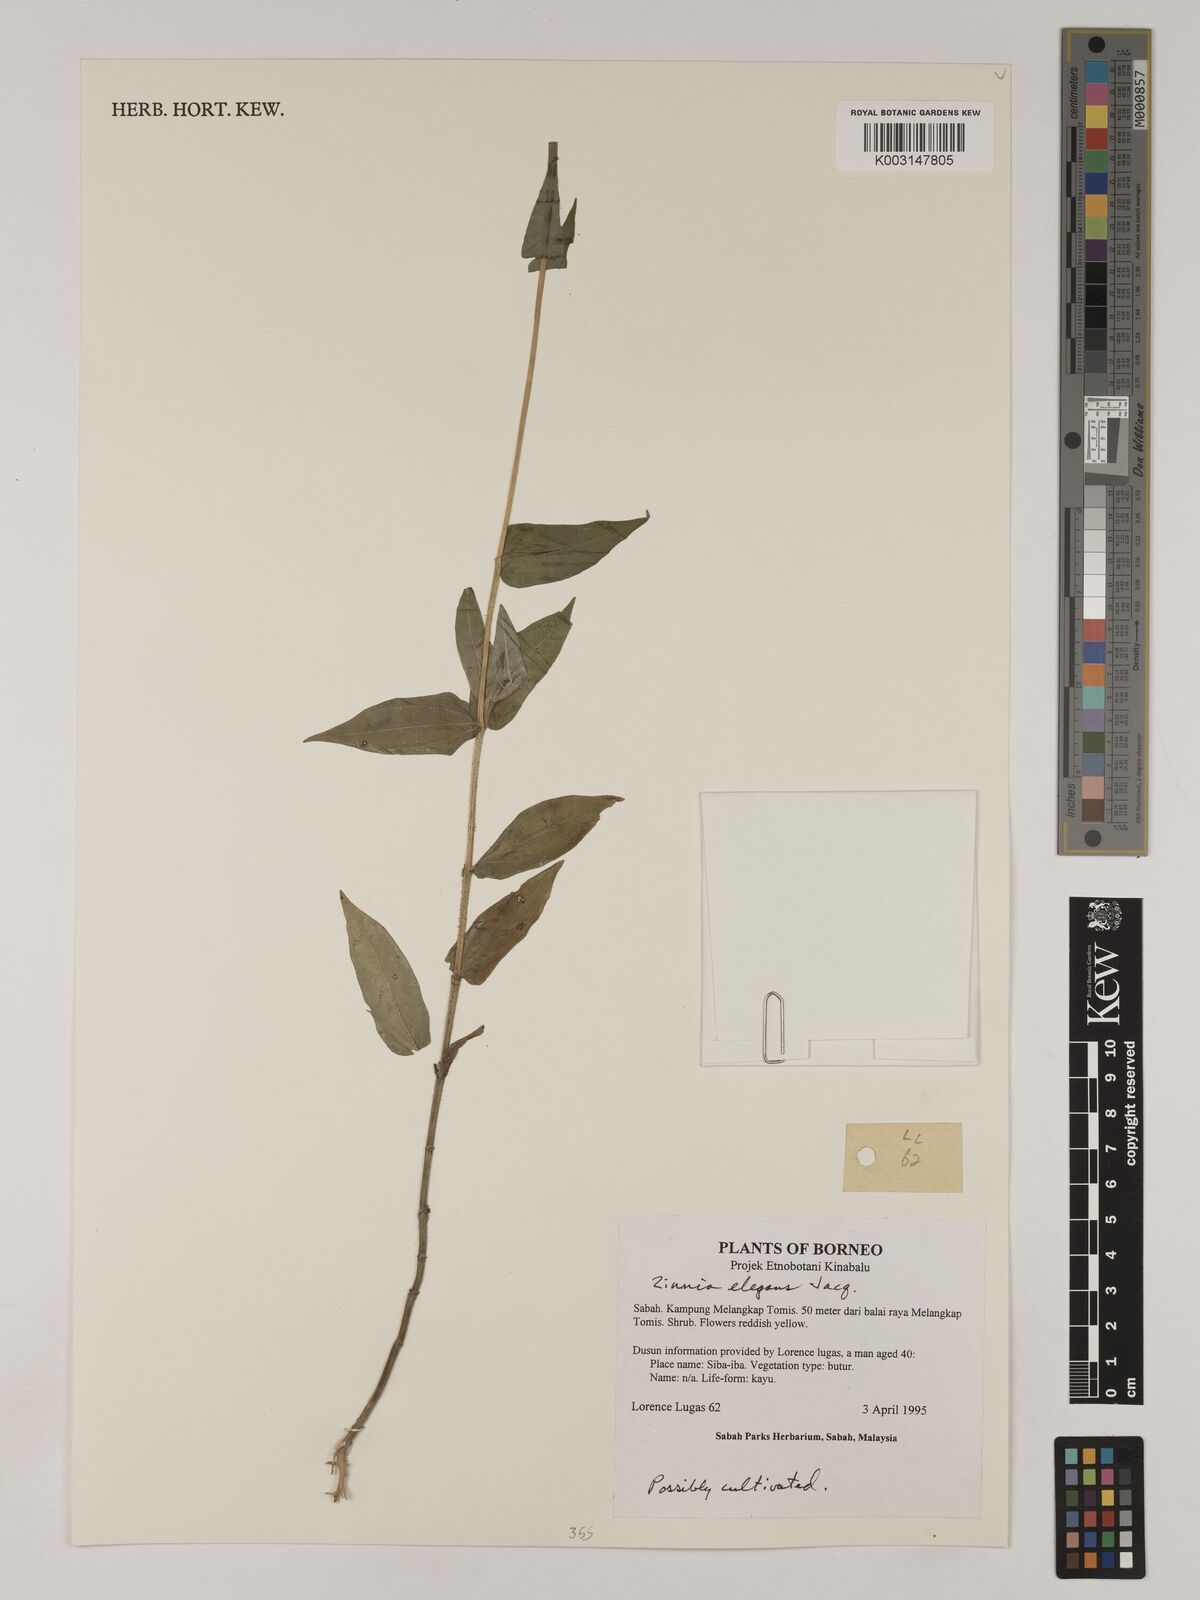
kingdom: Plantae
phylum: Tracheophyta
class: Magnoliopsida
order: Asterales
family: Asteraceae
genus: Zinnia
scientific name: Zinnia elegans
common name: Youth-and-age
